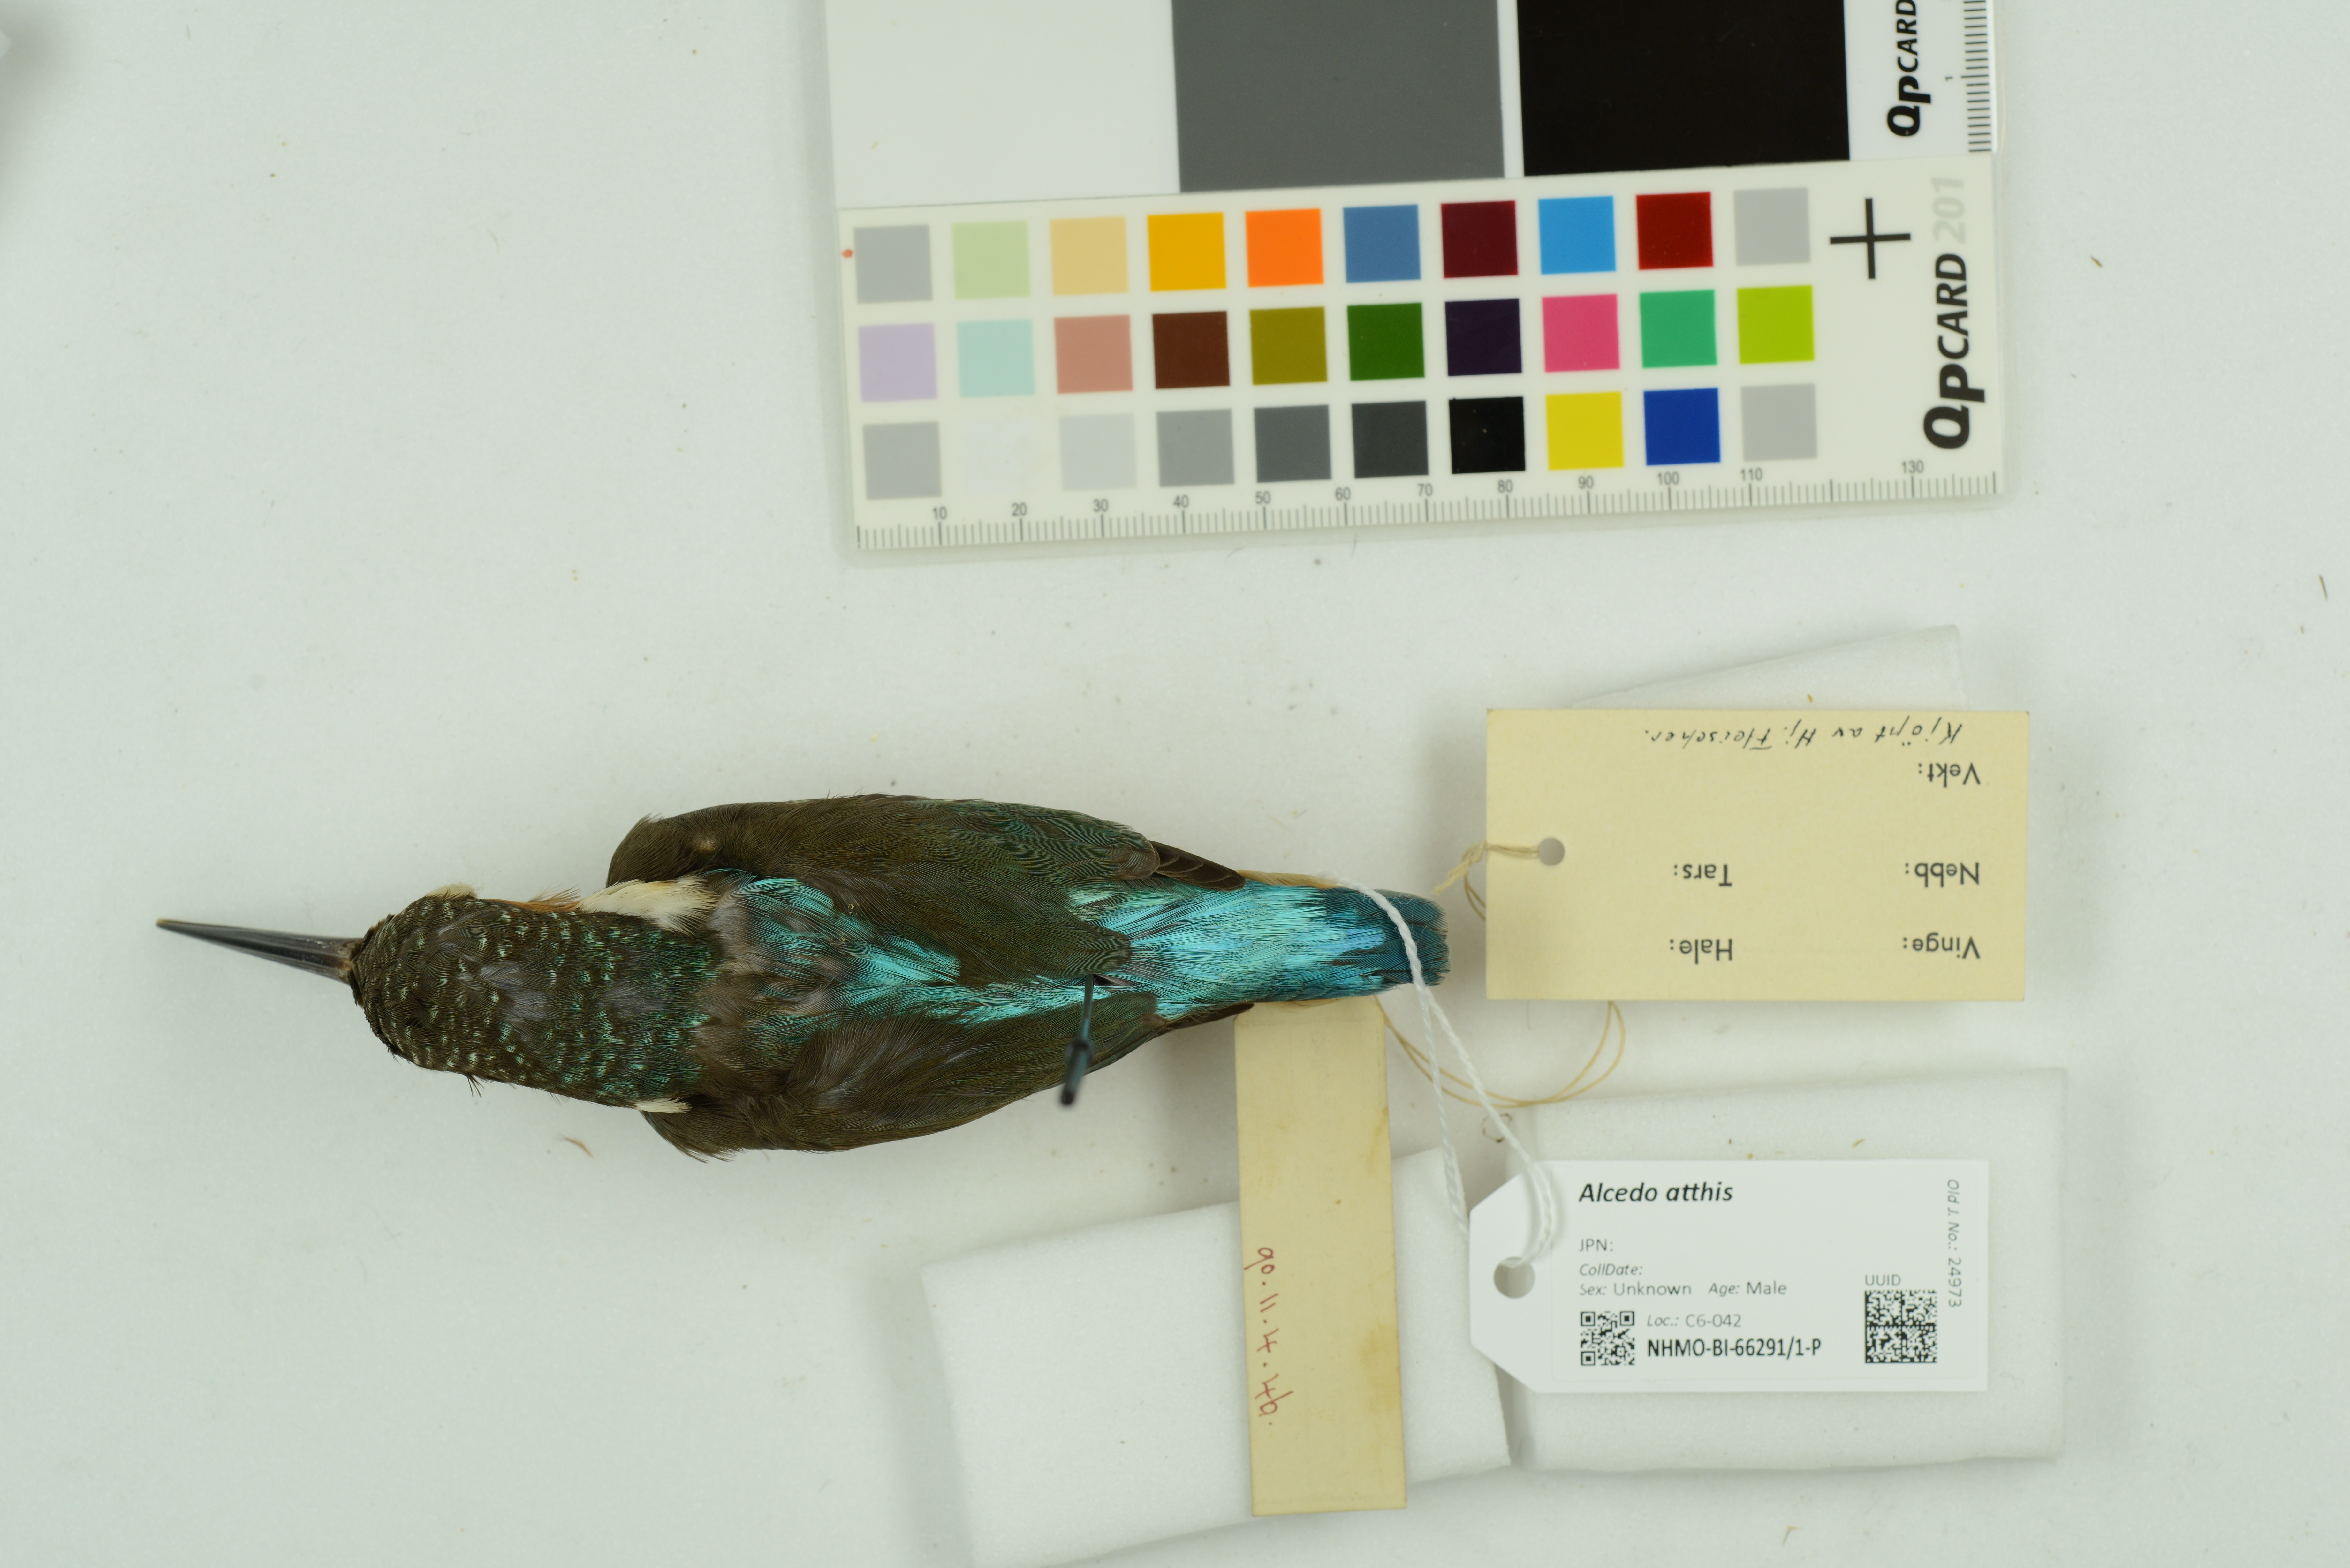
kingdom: Animalia
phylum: Chordata
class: Aves
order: Coraciiformes
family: Alcedinidae
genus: Alcedo
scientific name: Alcedo atthis
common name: Common kingfisher
